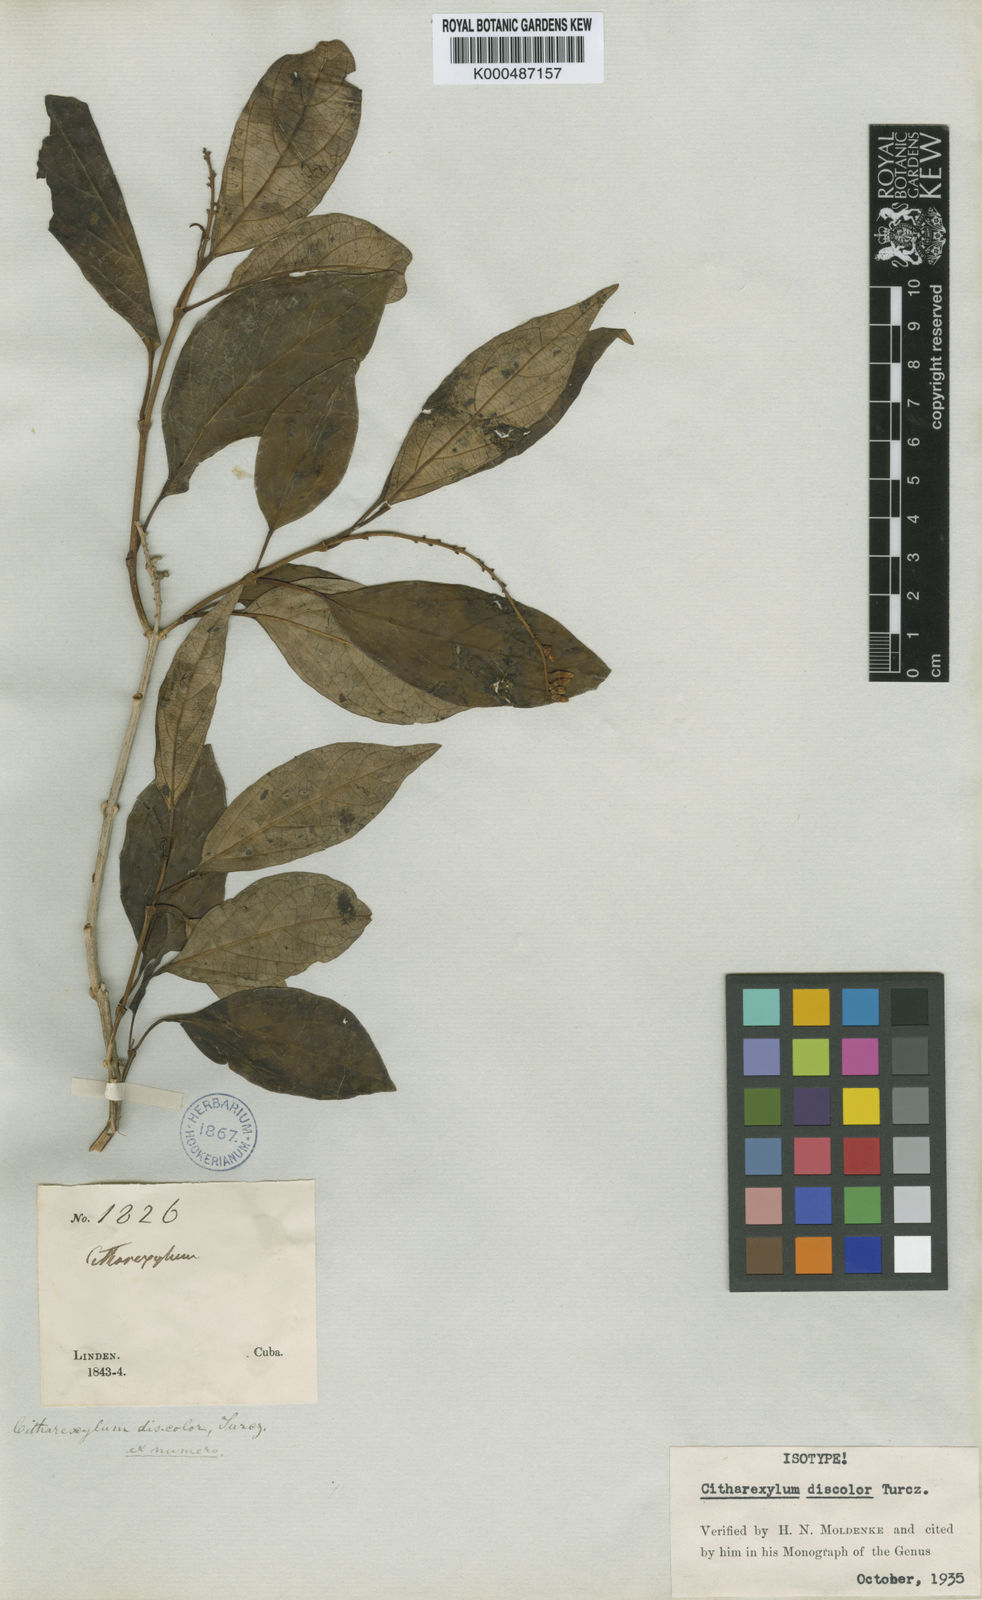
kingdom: Plantae
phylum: Tracheophyta
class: Magnoliopsida
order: Lamiales
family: Verbenaceae
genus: Citharexylum
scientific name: Citharexylum discolor
